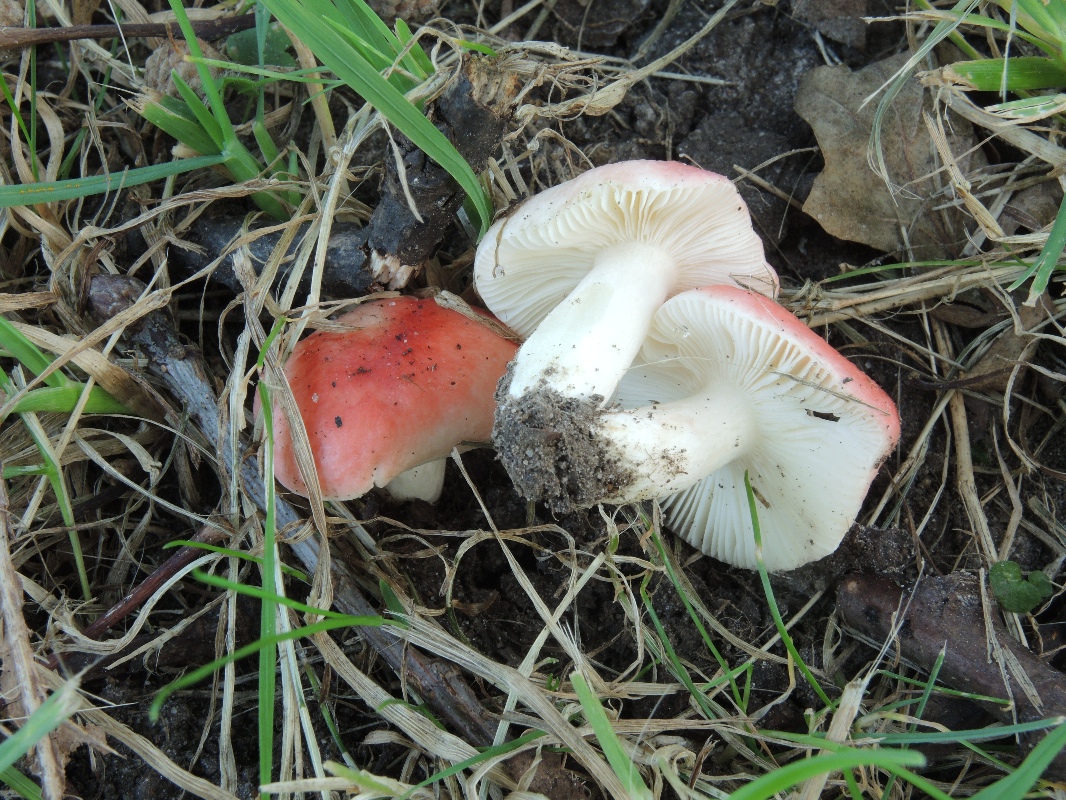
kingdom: Fungi
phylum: Basidiomycota
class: Agaricomycetes
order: Russulales
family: Russulaceae
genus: Russula
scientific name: Russula luteotacta
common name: gulplettet gift-skørhat
